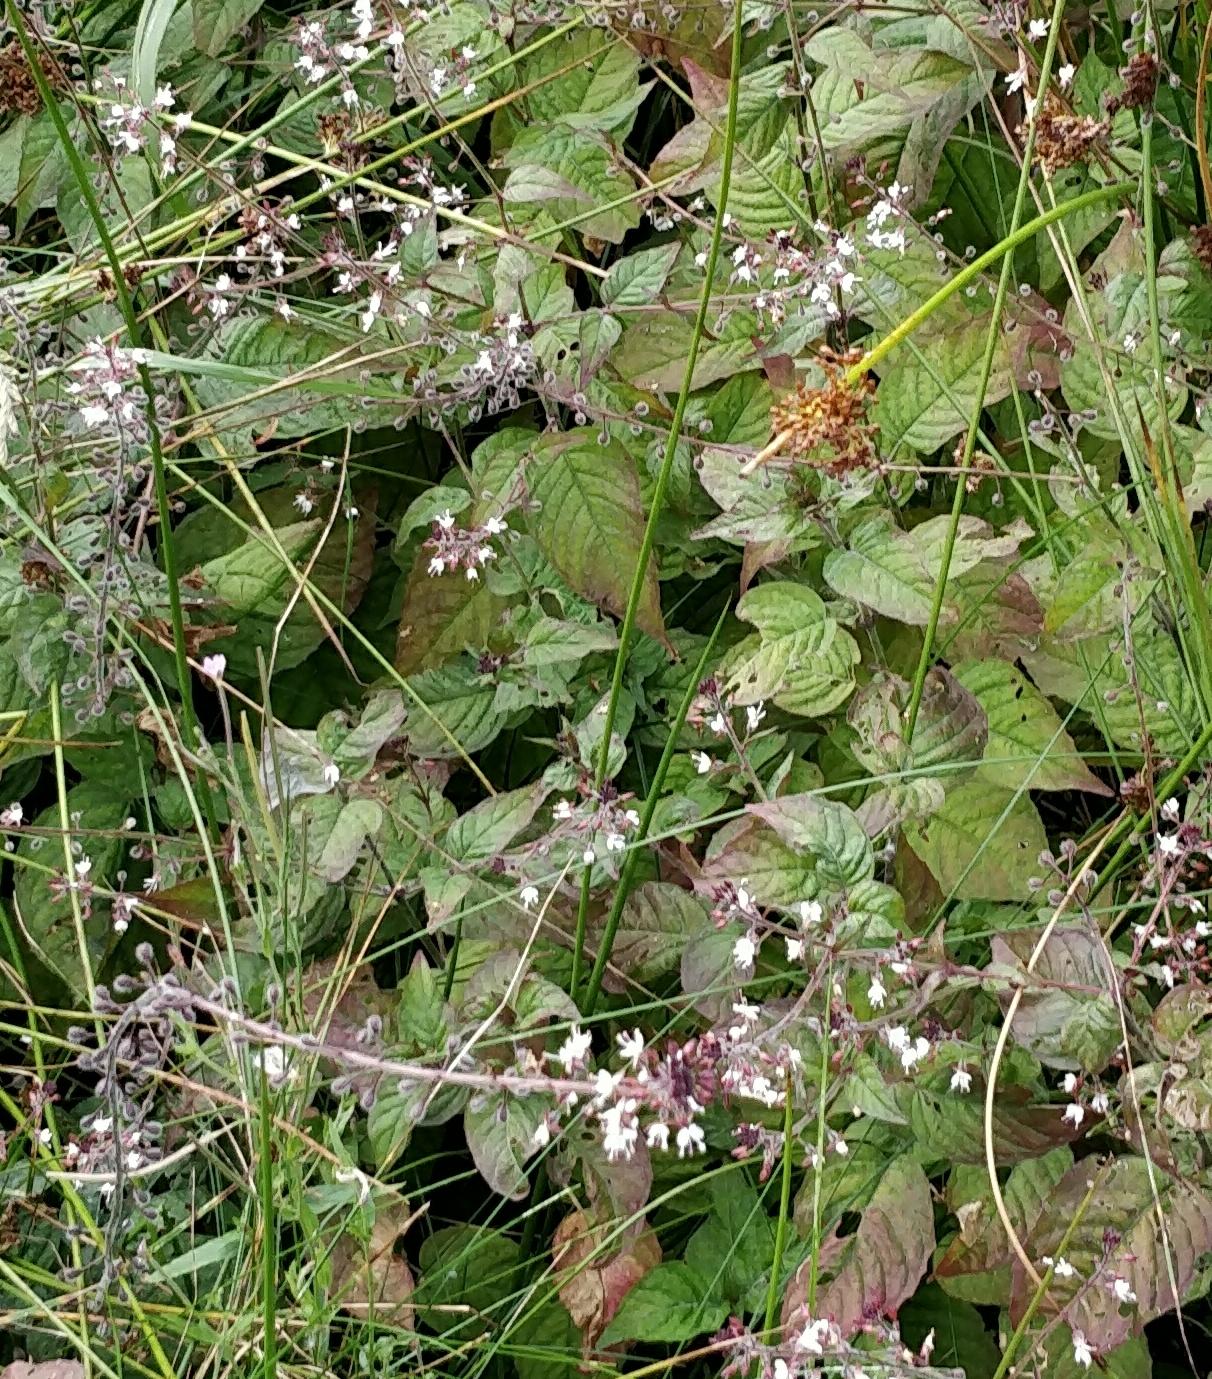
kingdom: Plantae
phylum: Tracheophyta
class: Magnoliopsida
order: Myrtales
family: Onagraceae
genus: Circaea
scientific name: Circaea lutetiana
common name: Dunet steffensurt
